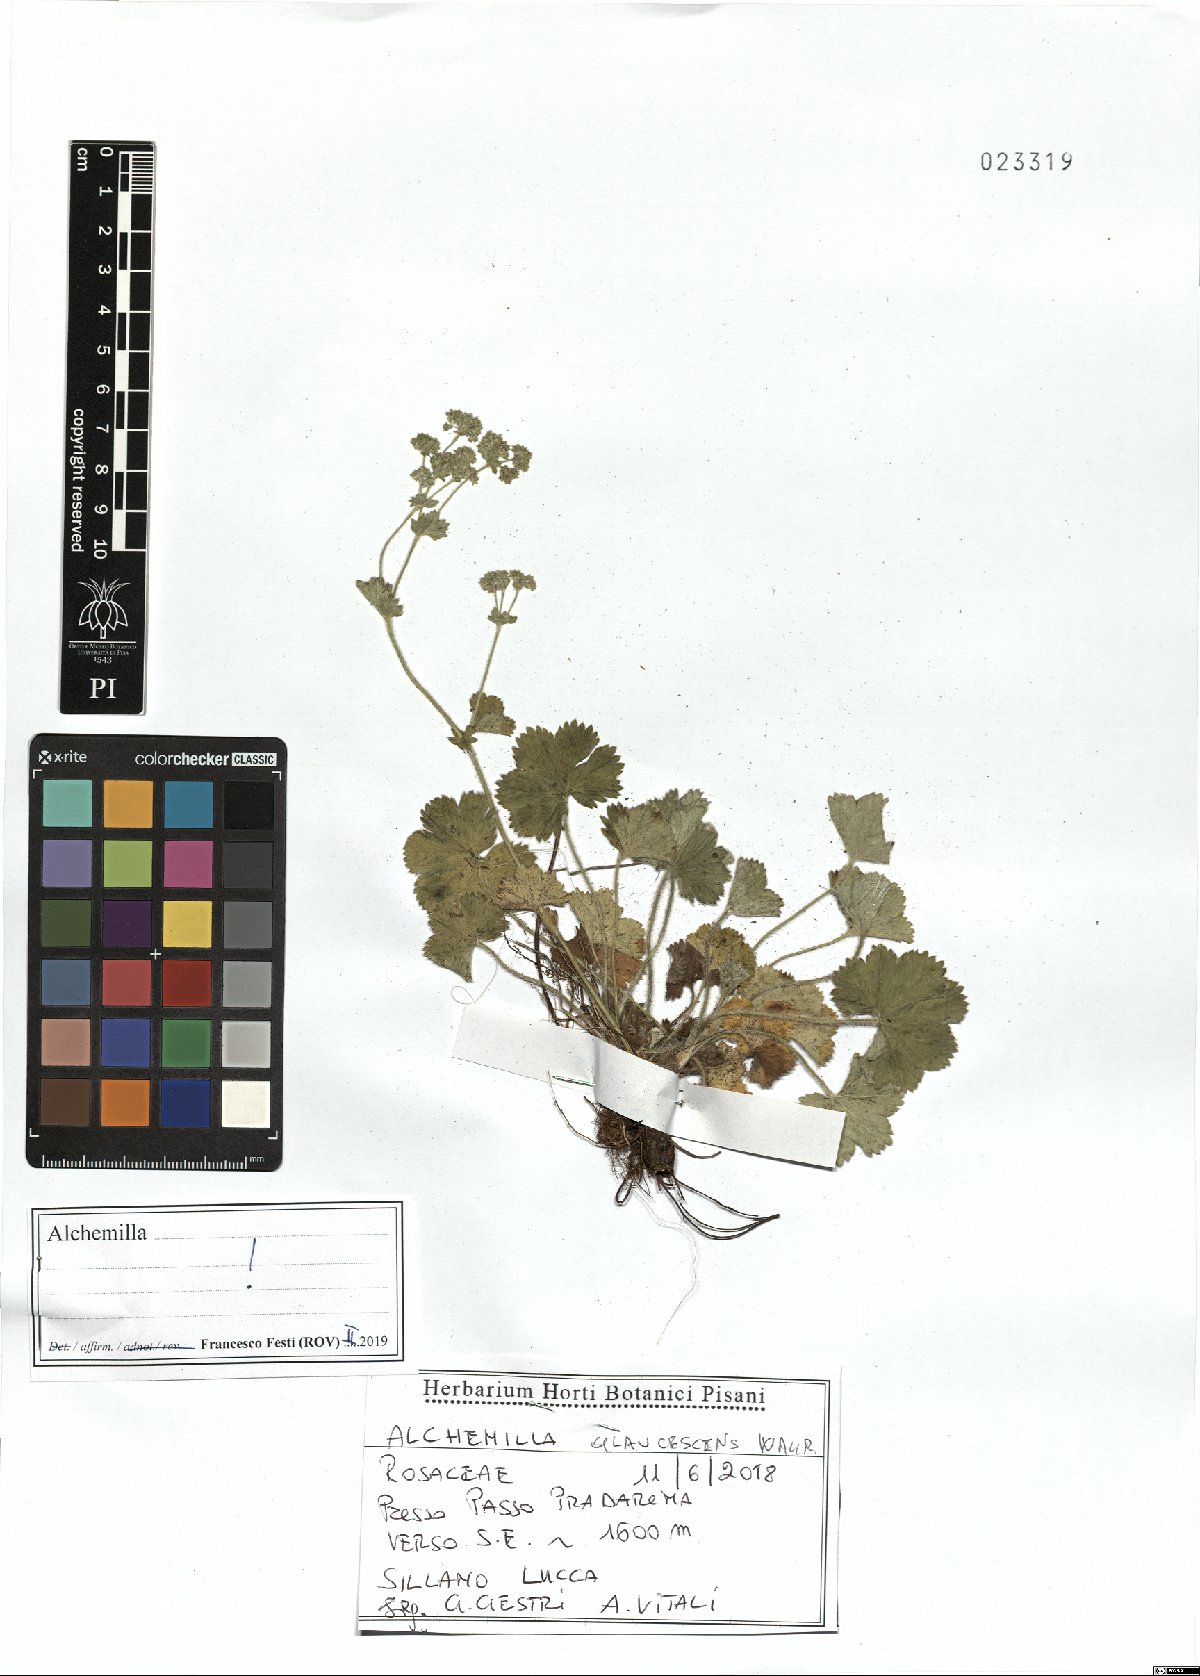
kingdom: Plantae
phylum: Tracheophyta
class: Magnoliopsida
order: Rosales
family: Rosaceae
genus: Alchemilla
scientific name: Alchemilla glaucescens
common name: Silky lady's mantle
